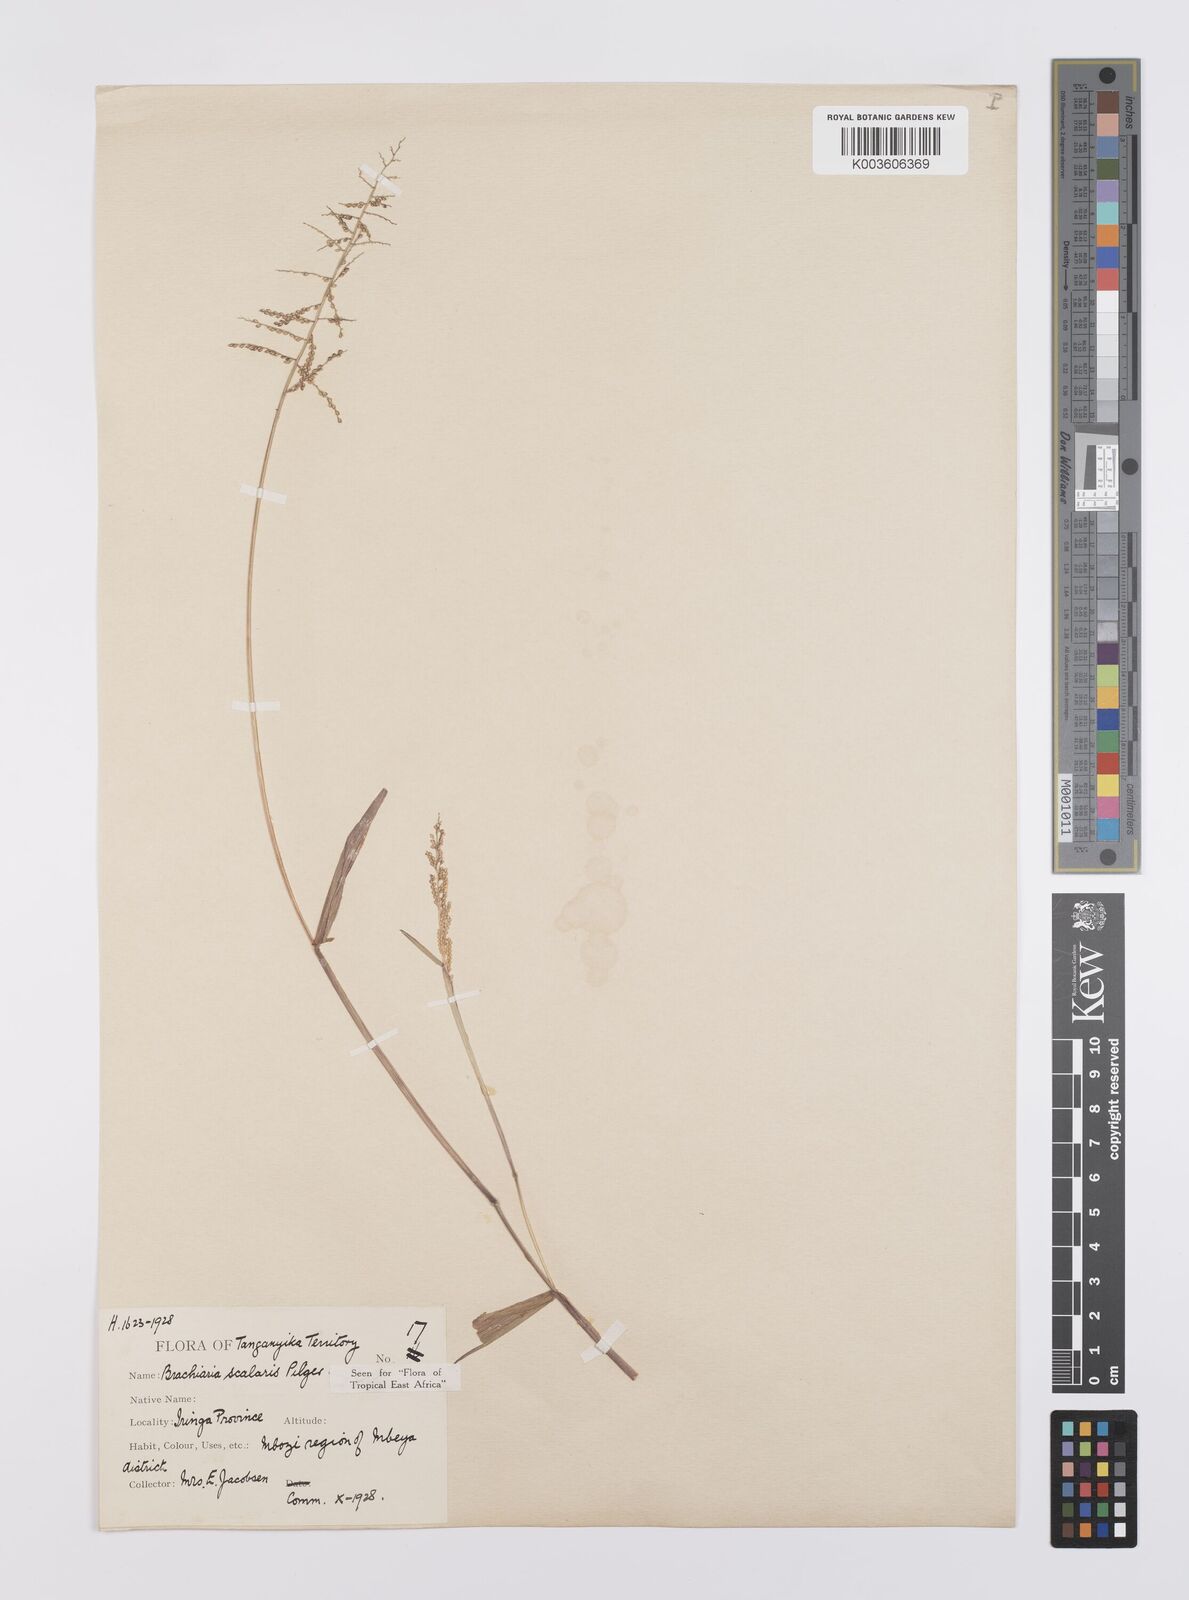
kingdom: Plantae
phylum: Tracheophyta
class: Liliopsida
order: Poales
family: Poaceae
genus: Urochloa
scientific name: Urochloa comata
